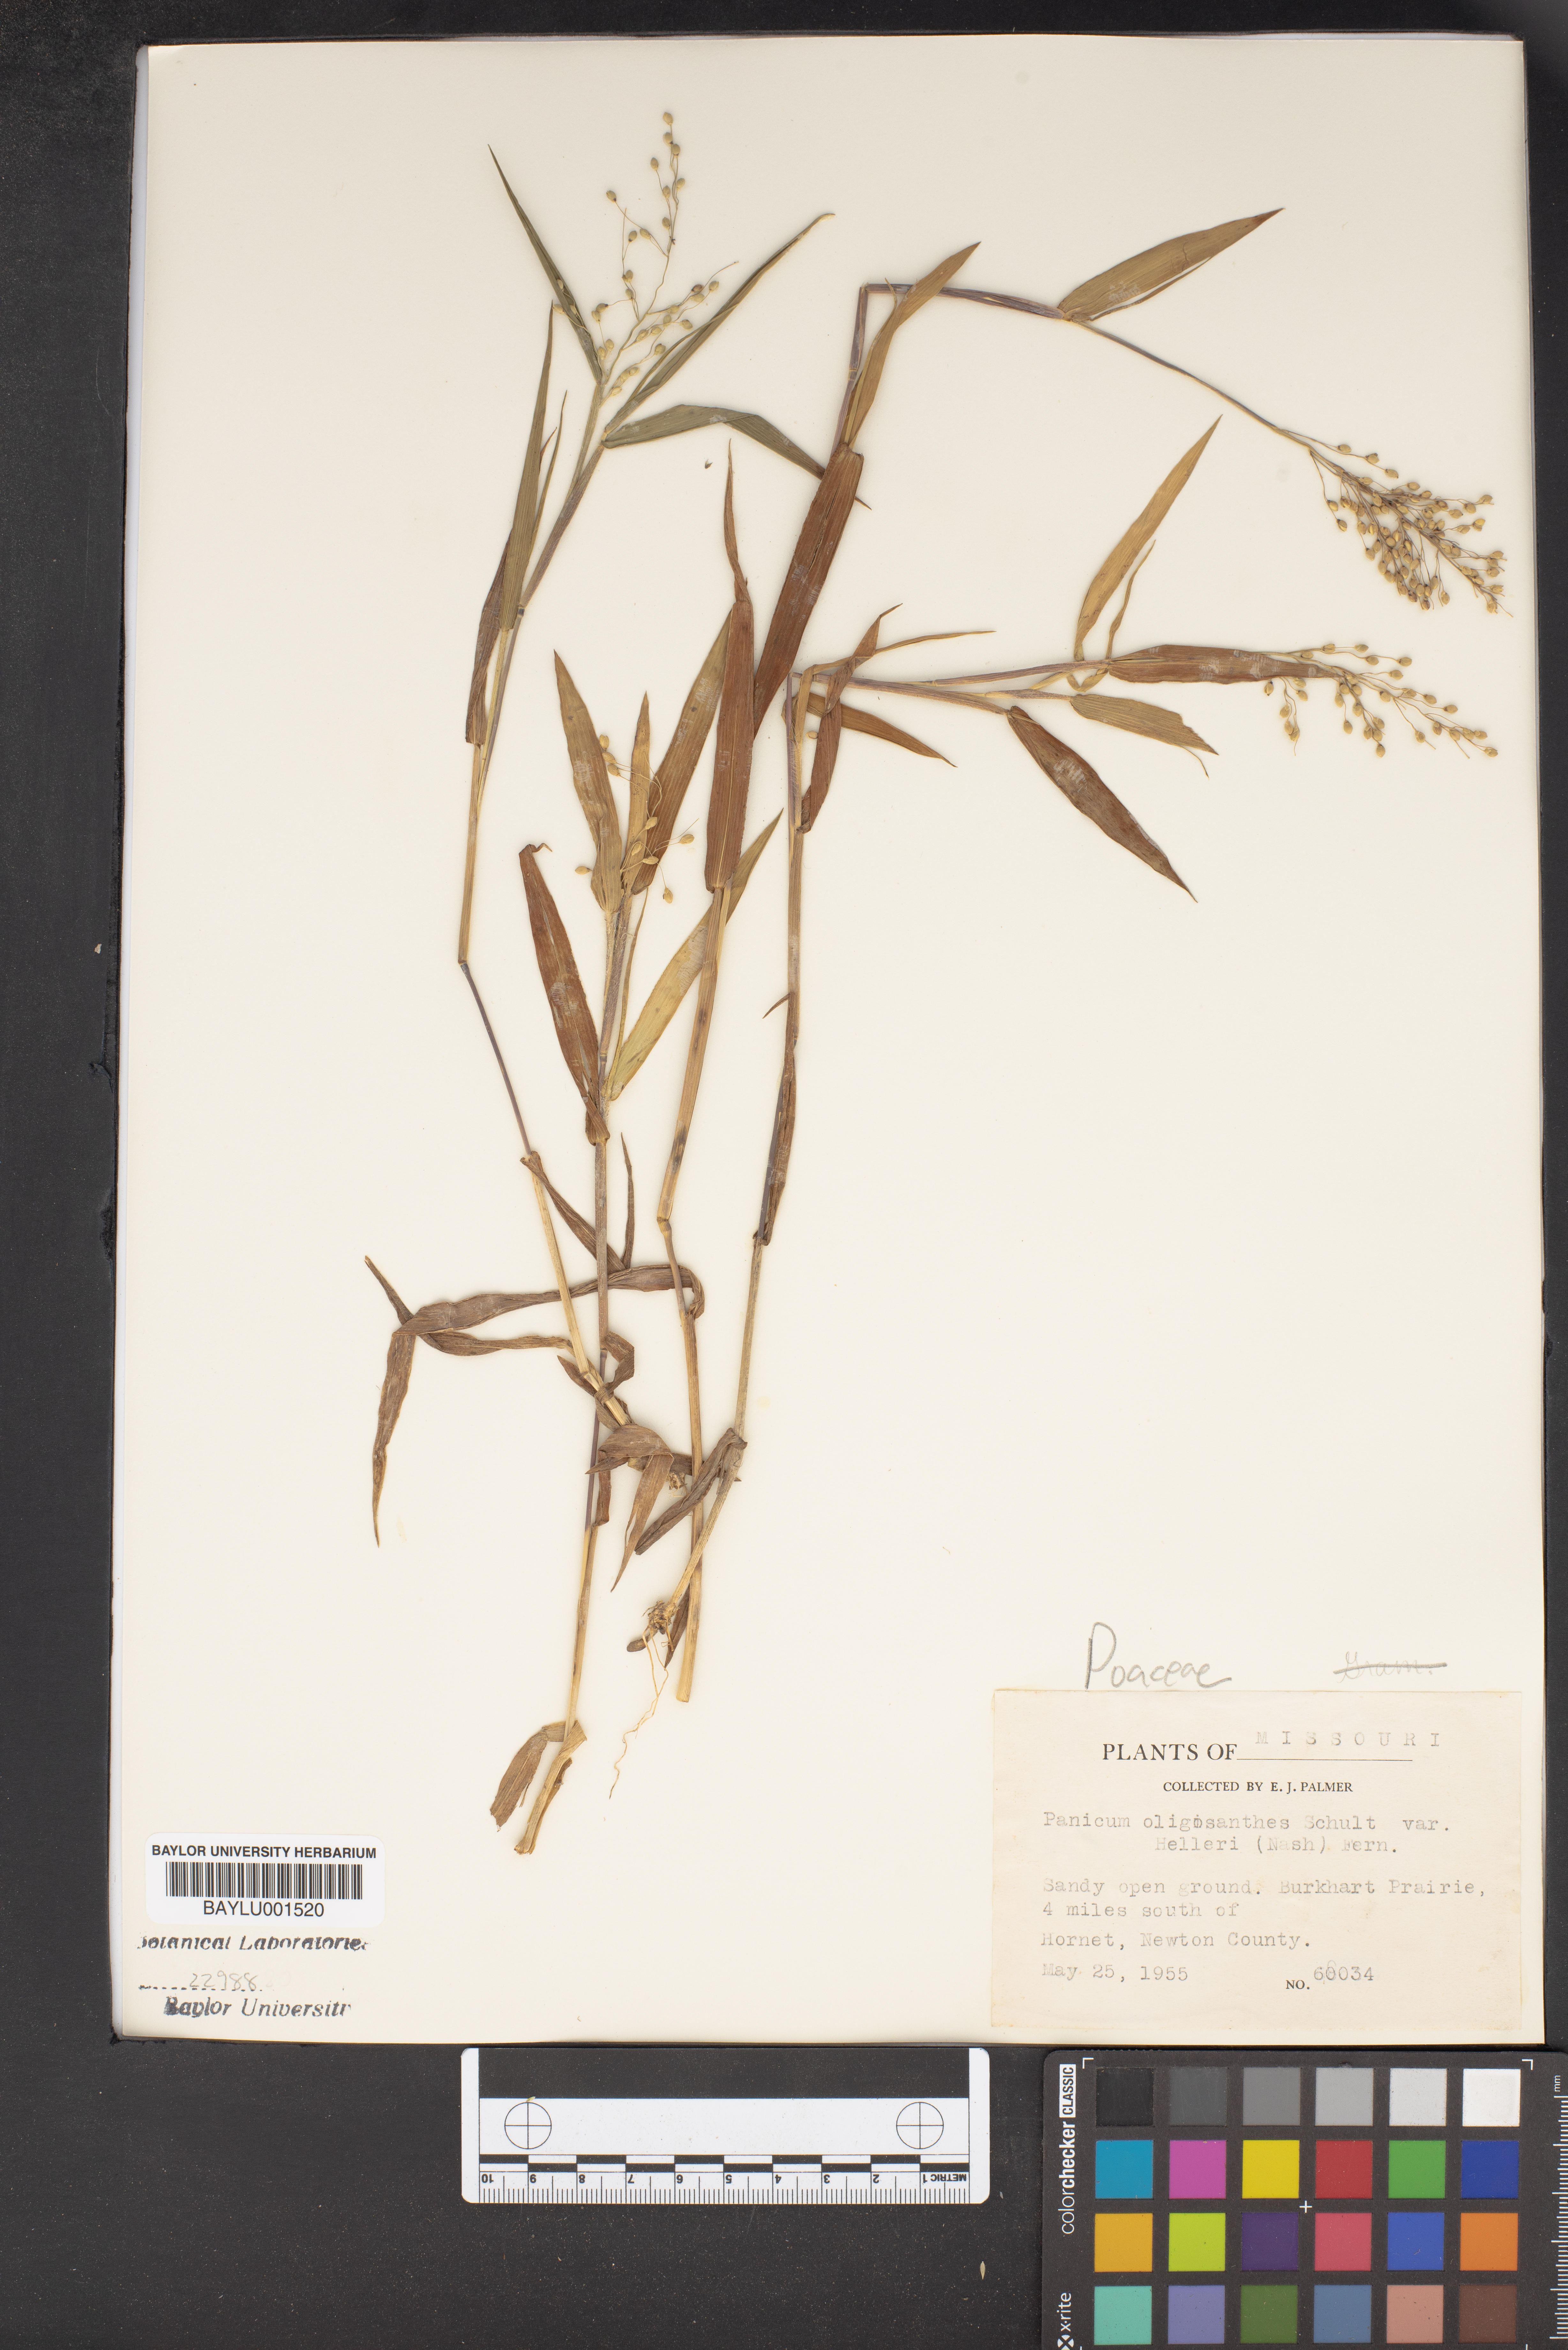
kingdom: Plantae
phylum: Tracheophyta
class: Liliopsida
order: Poales
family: Poaceae
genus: Dichanthelium
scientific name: Dichanthelium oligosanthes
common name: Few-anther obscuregrass
